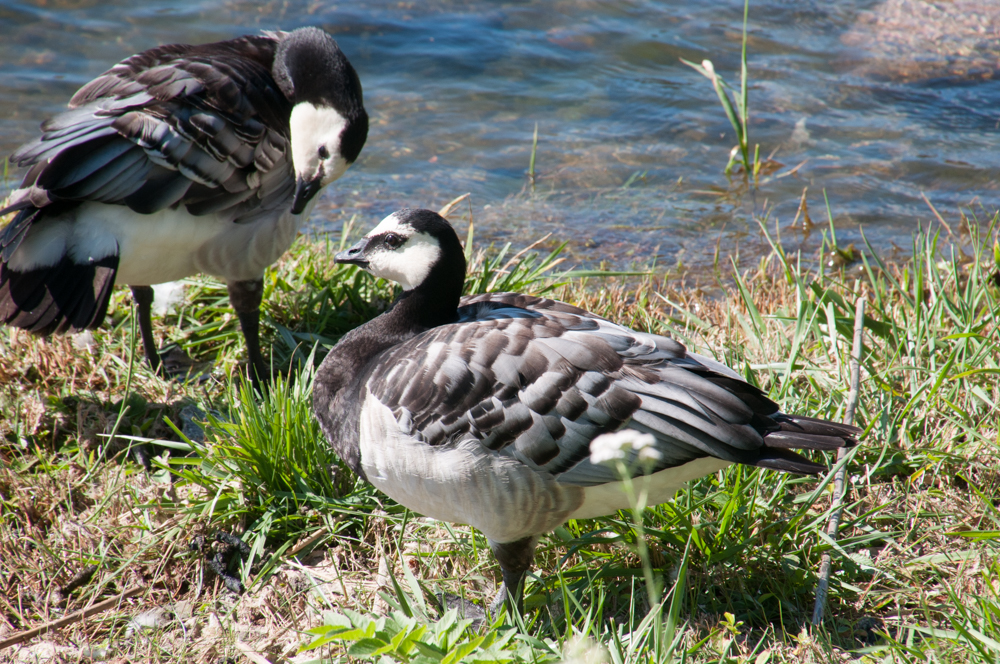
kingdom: Animalia
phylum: Chordata
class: Aves
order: Anseriformes
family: Anatidae
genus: Branta
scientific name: Branta leucopsis
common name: Barnacle goose
